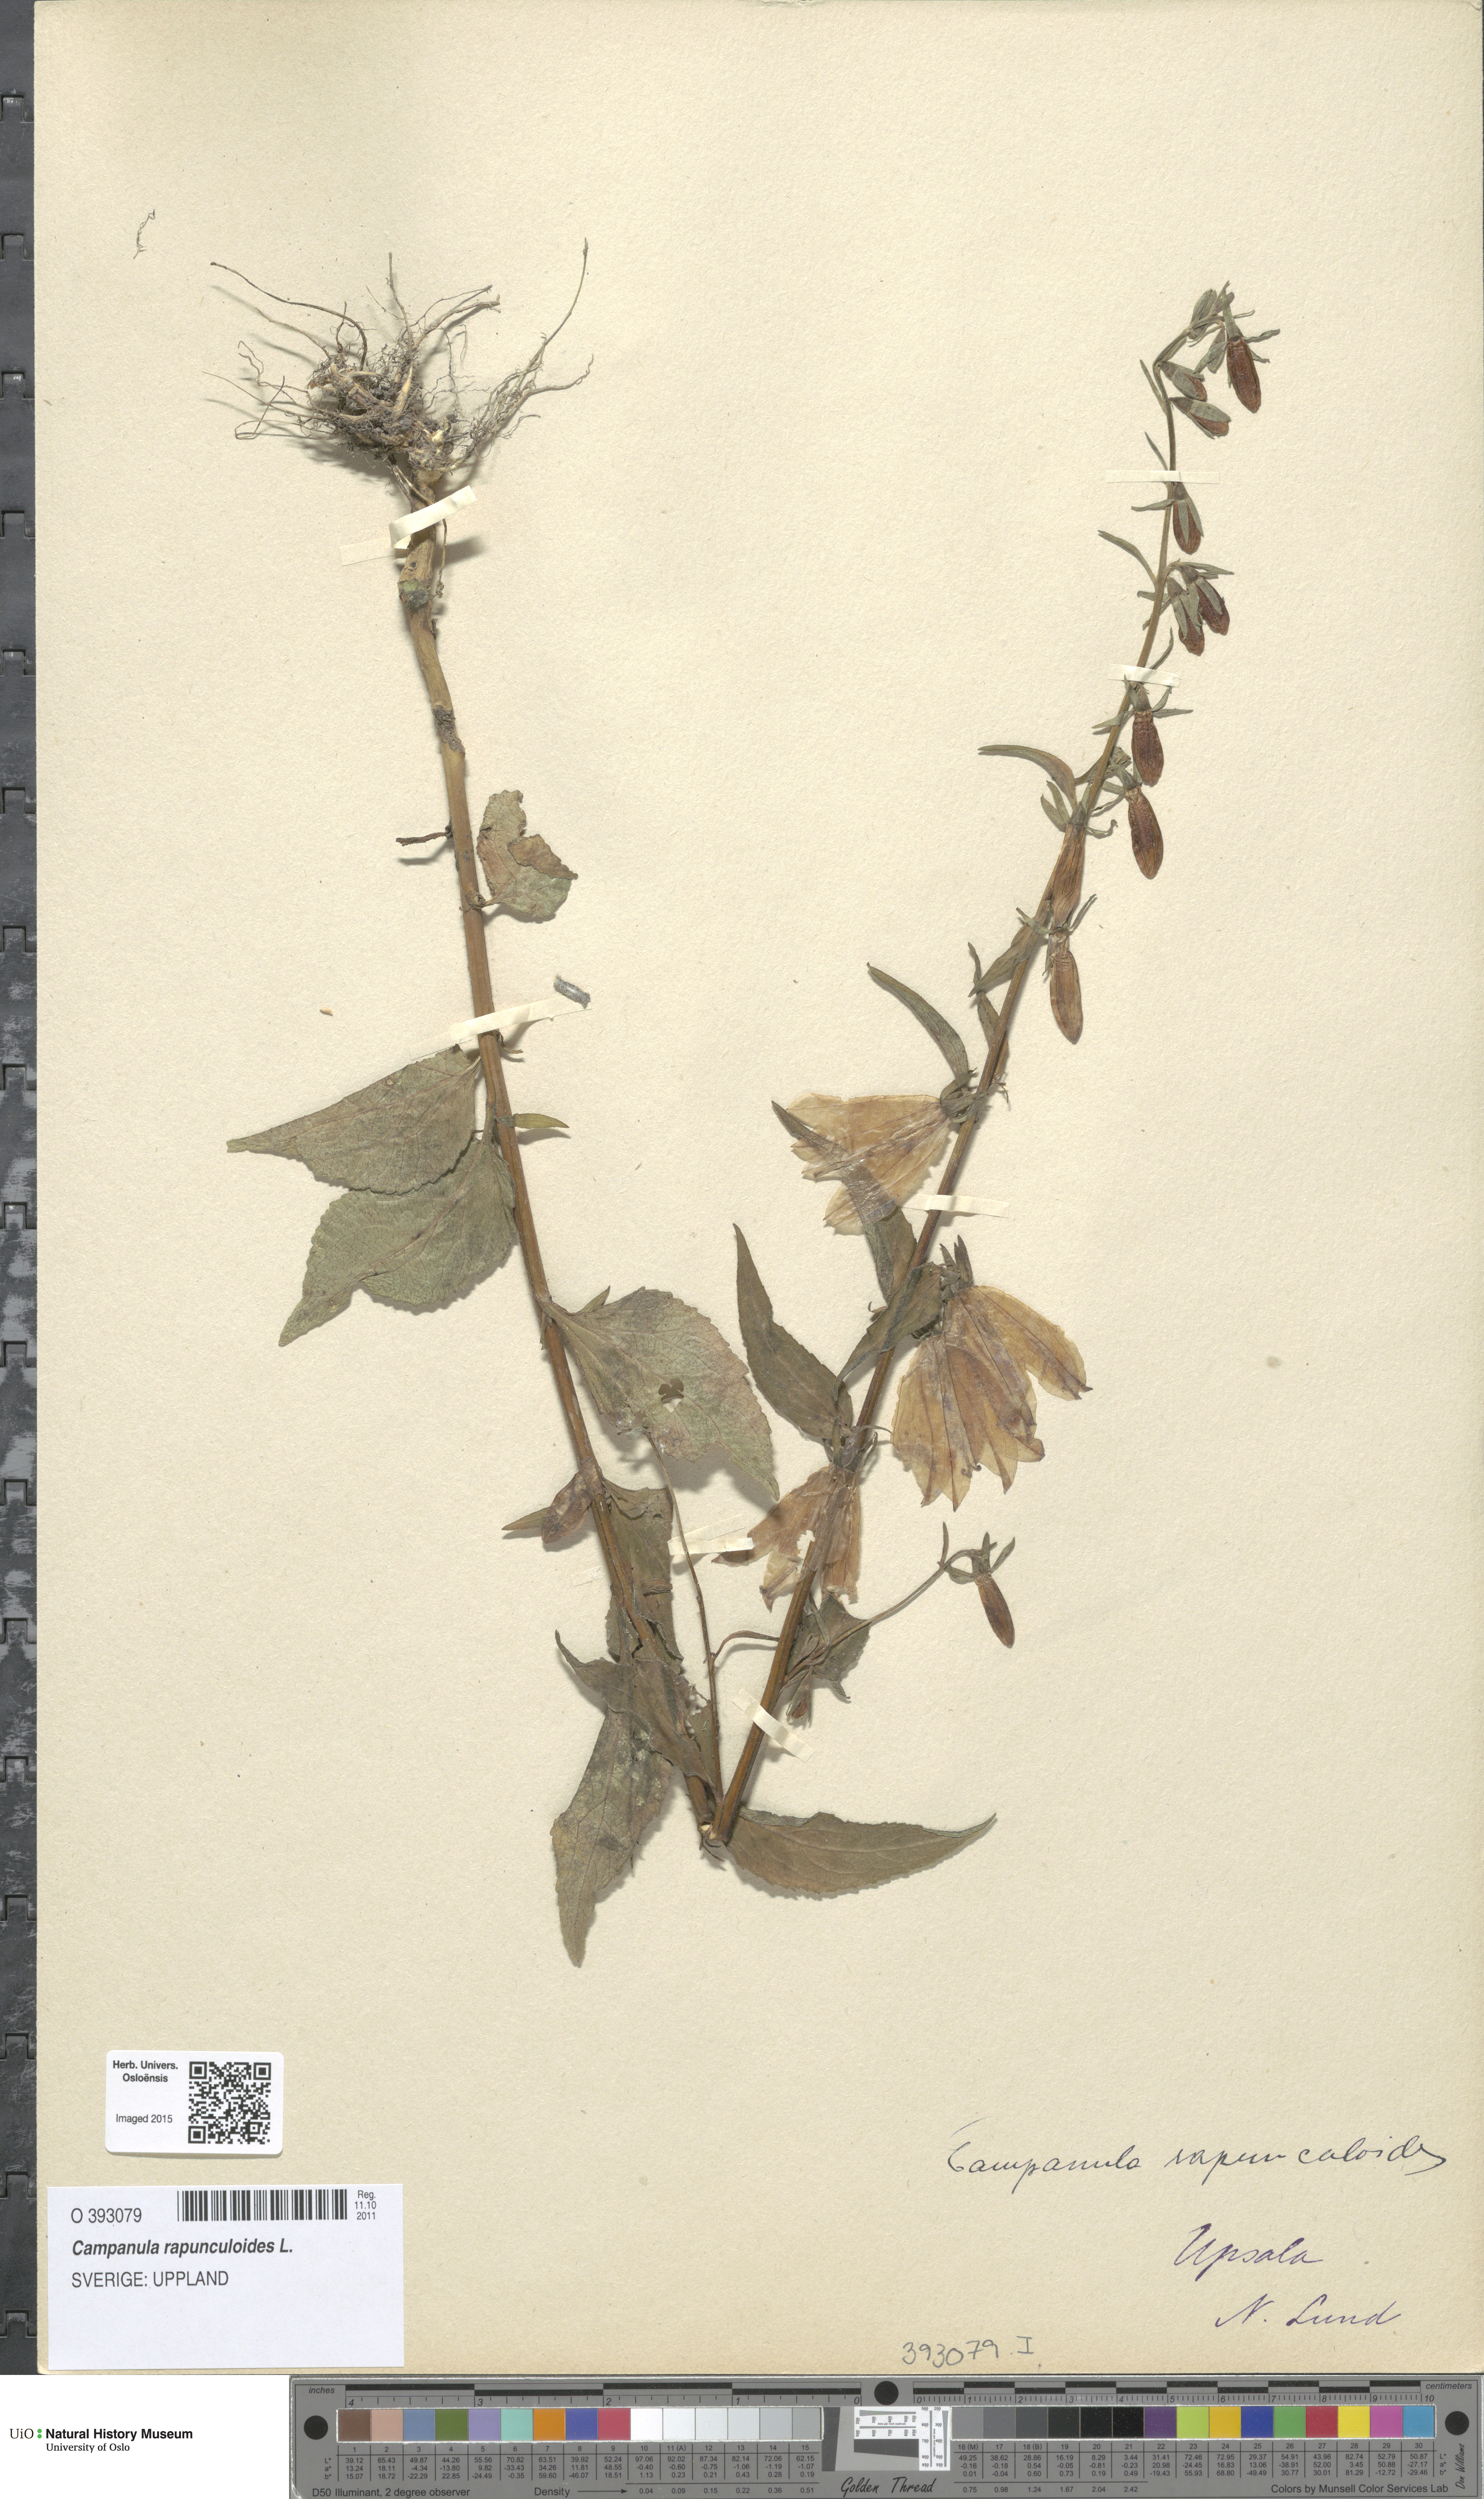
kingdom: Plantae
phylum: Tracheophyta
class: Magnoliopsida
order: Asterales
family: Campanulaceae
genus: Campanula
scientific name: Campanula rapunculoides
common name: Creeping bellflower
